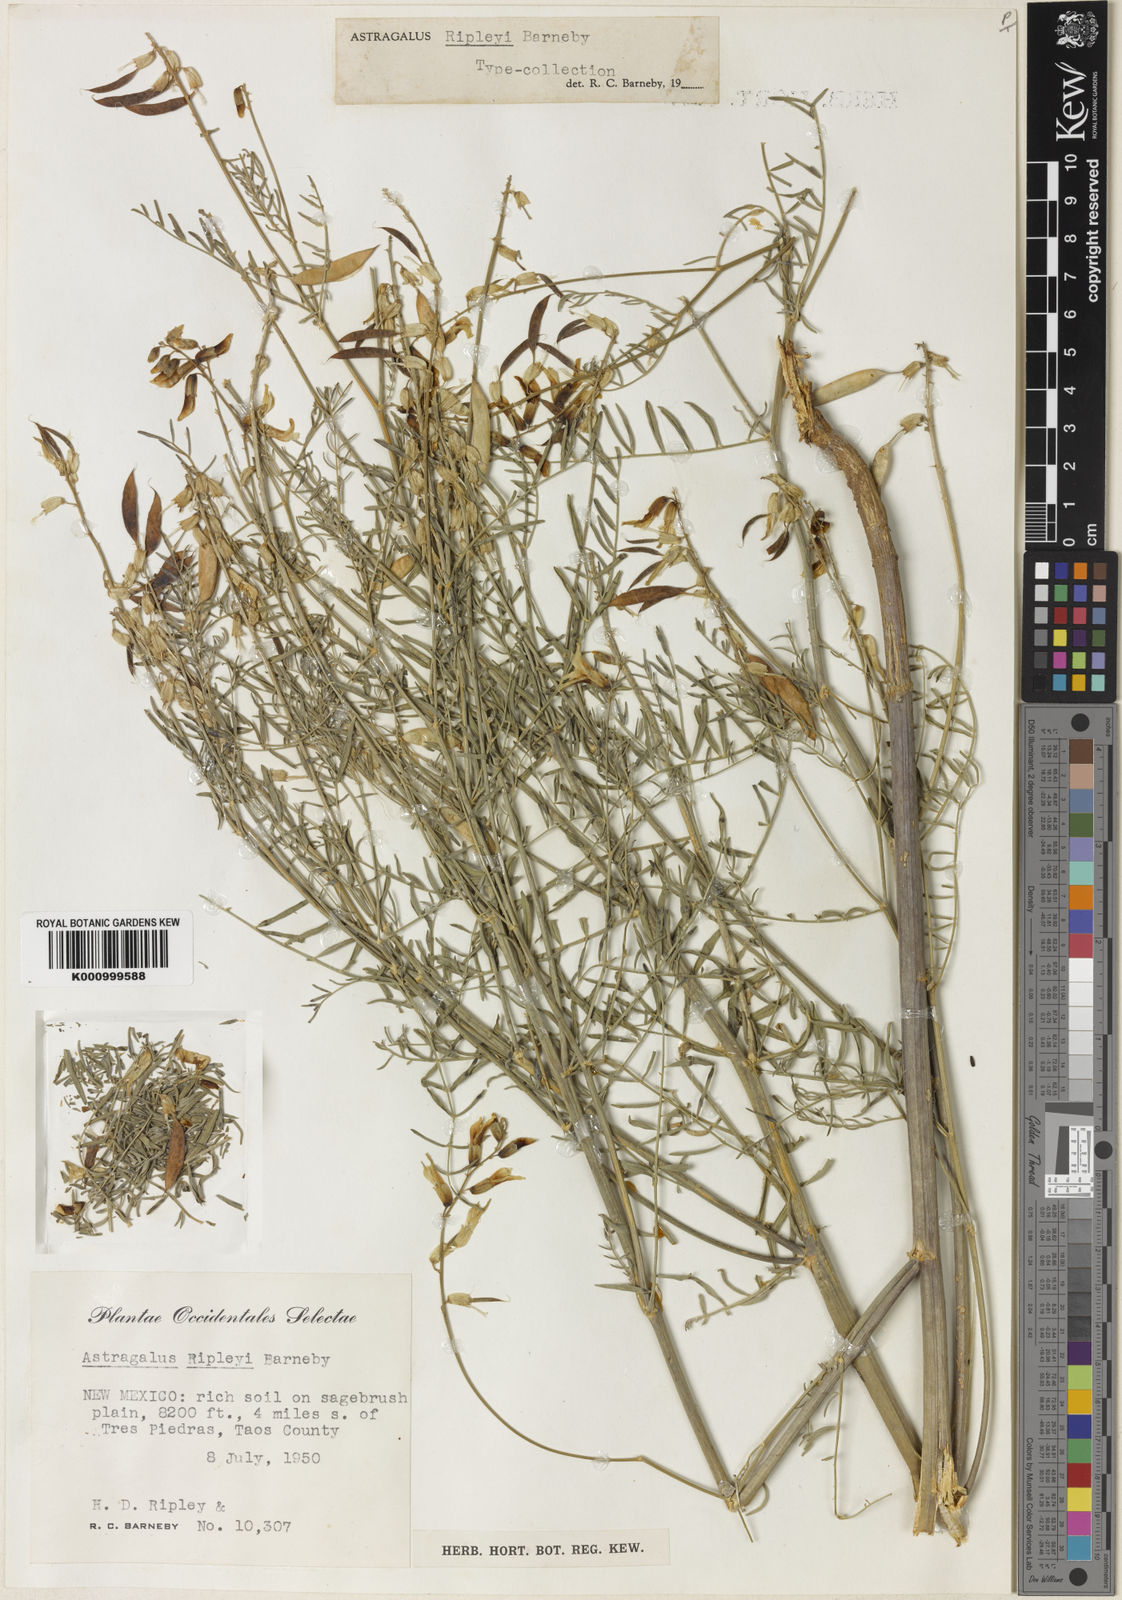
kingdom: Plantae
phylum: Tracheophyta
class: Magnoliopsida
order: Fabales
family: Fabaceae
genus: Astragalus
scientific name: Astragalus ripleyi
